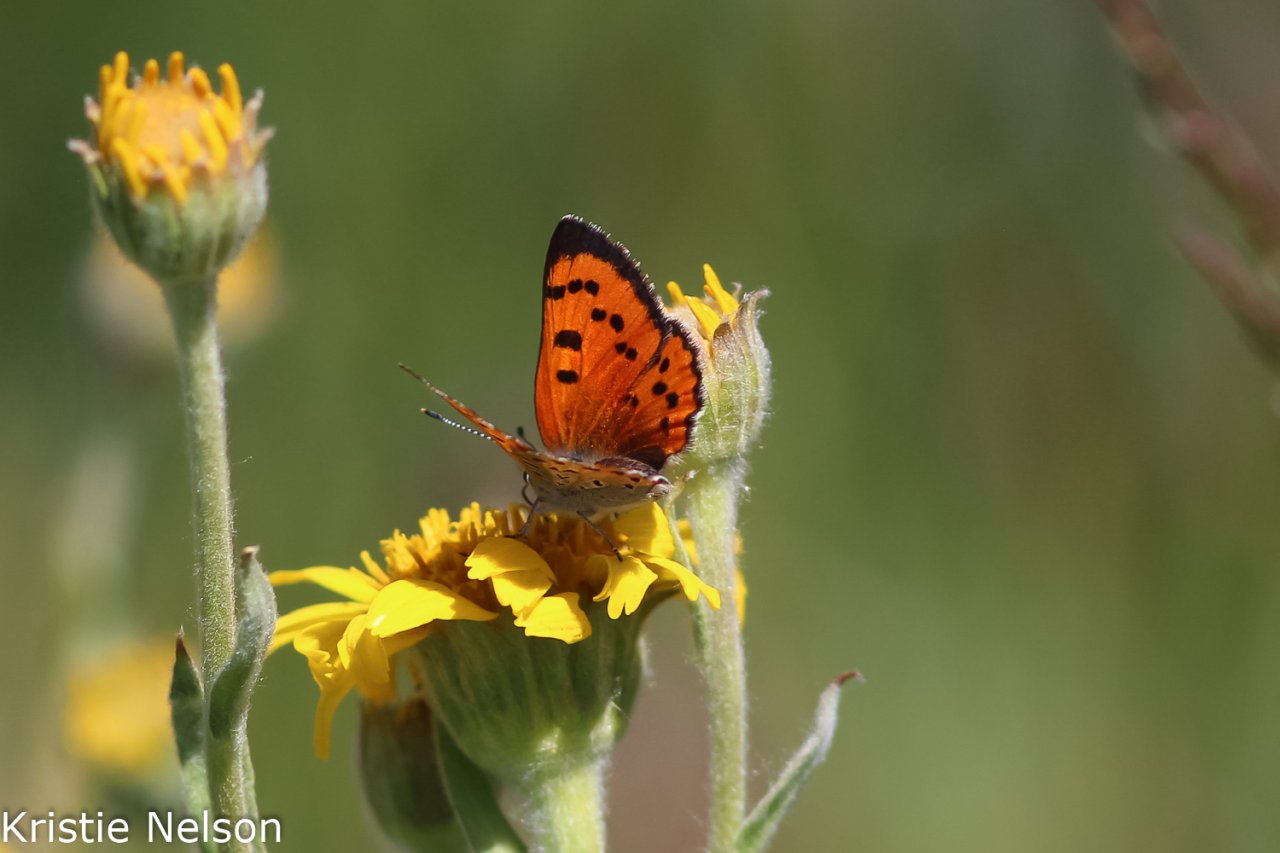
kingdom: Animalia
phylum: Arthropoda
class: Insecta
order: Lepidoptera
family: Lycaenidae
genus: Lycaena
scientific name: Lycaena cupreus
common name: Lustrous Copper
